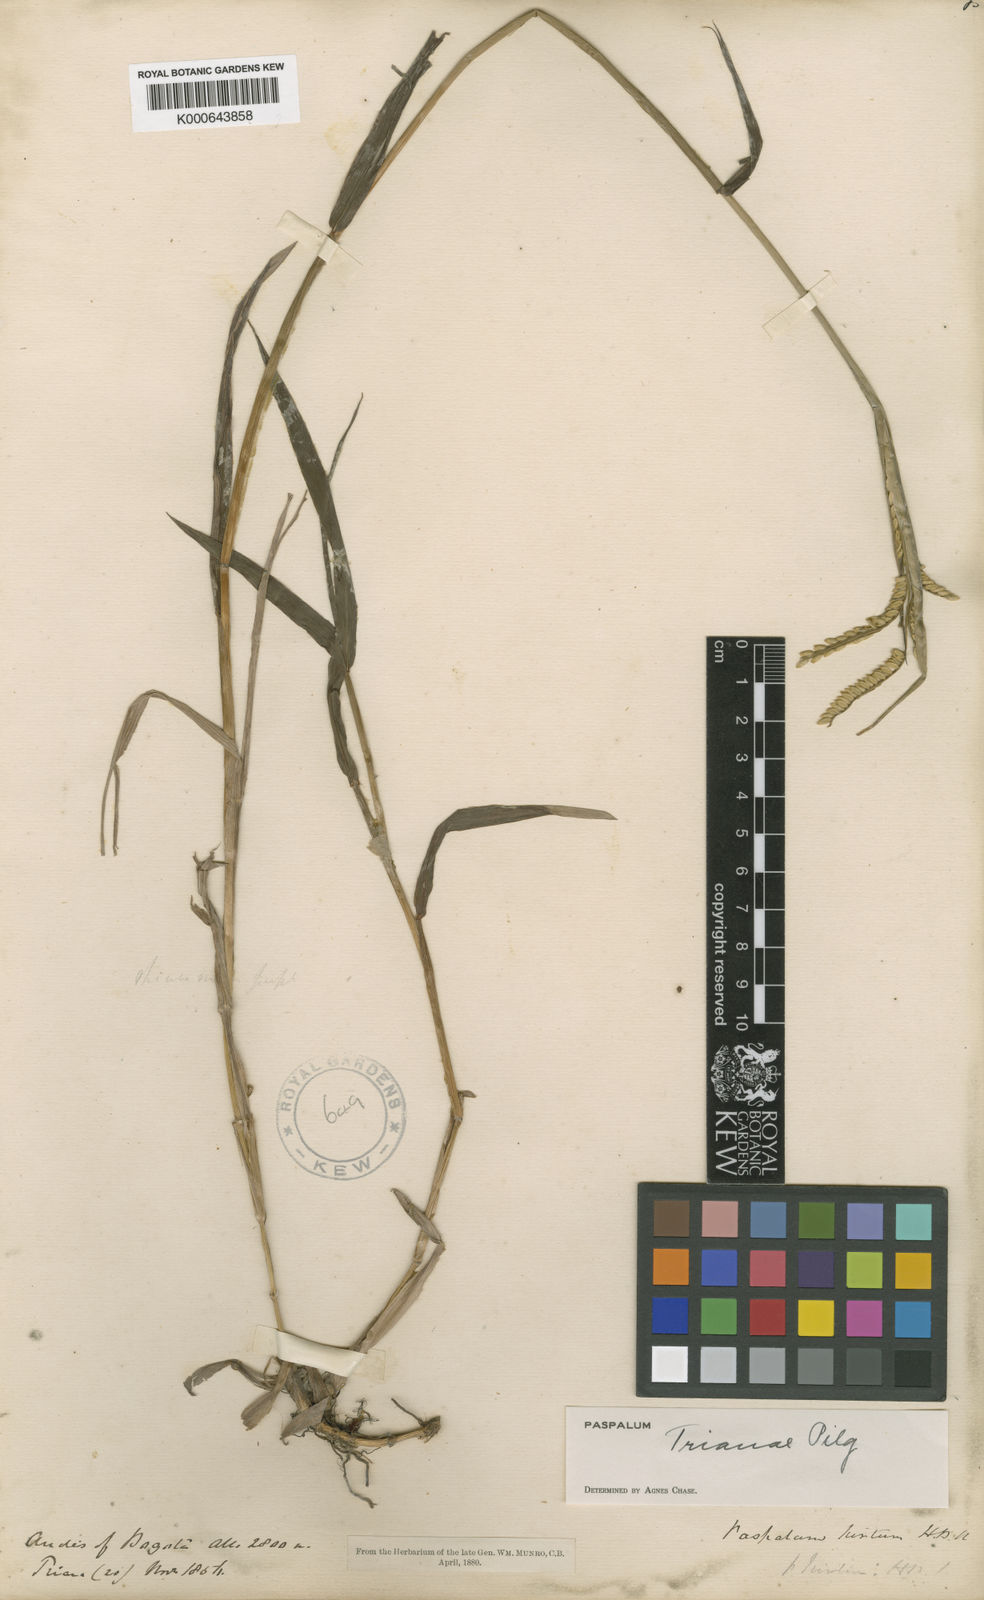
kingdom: Plantae
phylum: Tracheophyta
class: Liliopsida
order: Poales
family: Poaceae
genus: Paspalum
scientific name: Paspalum trianae
